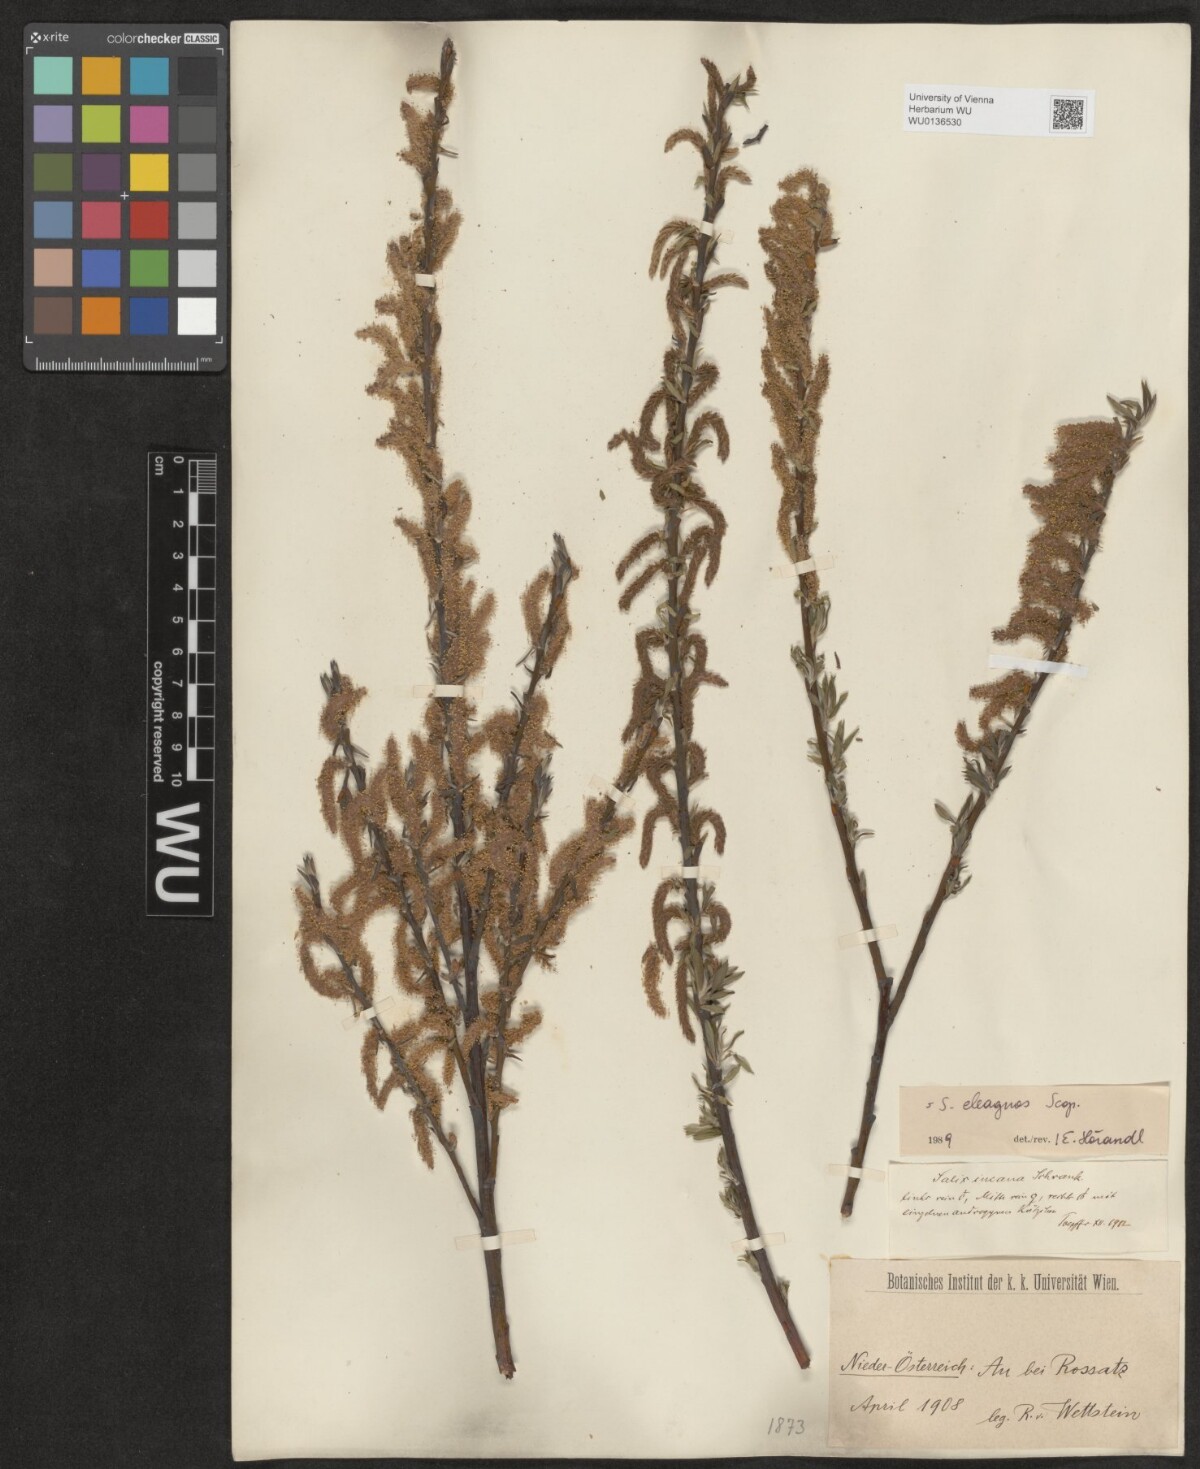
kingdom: Plantae
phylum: Tracheophyta
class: Magnoliopsida
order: Malpighiales
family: Salicaceae
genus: Salix
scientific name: Salix eleagnos
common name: Elaeagnus willow
